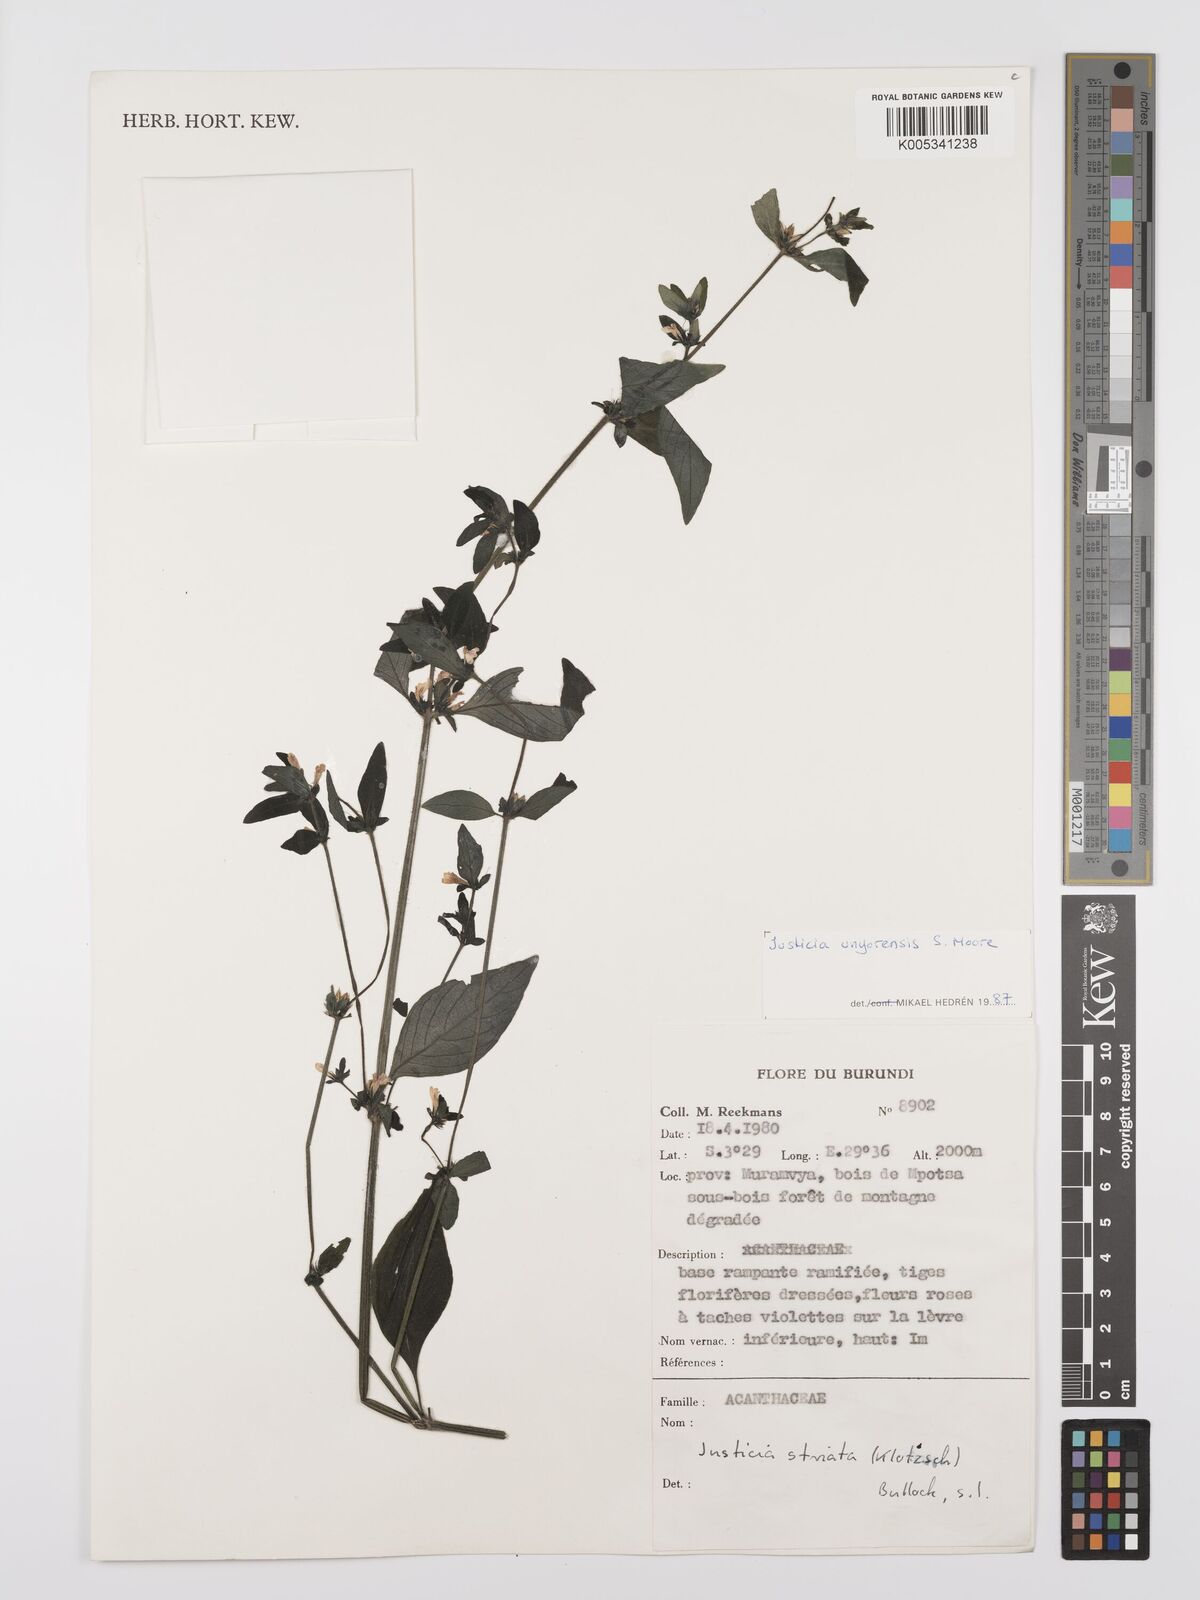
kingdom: Plantae
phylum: Tracheophyta
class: Magnoliopsida
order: Lamiales
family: Acanthaceae
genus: Justicia
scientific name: Justicia unyorensis
